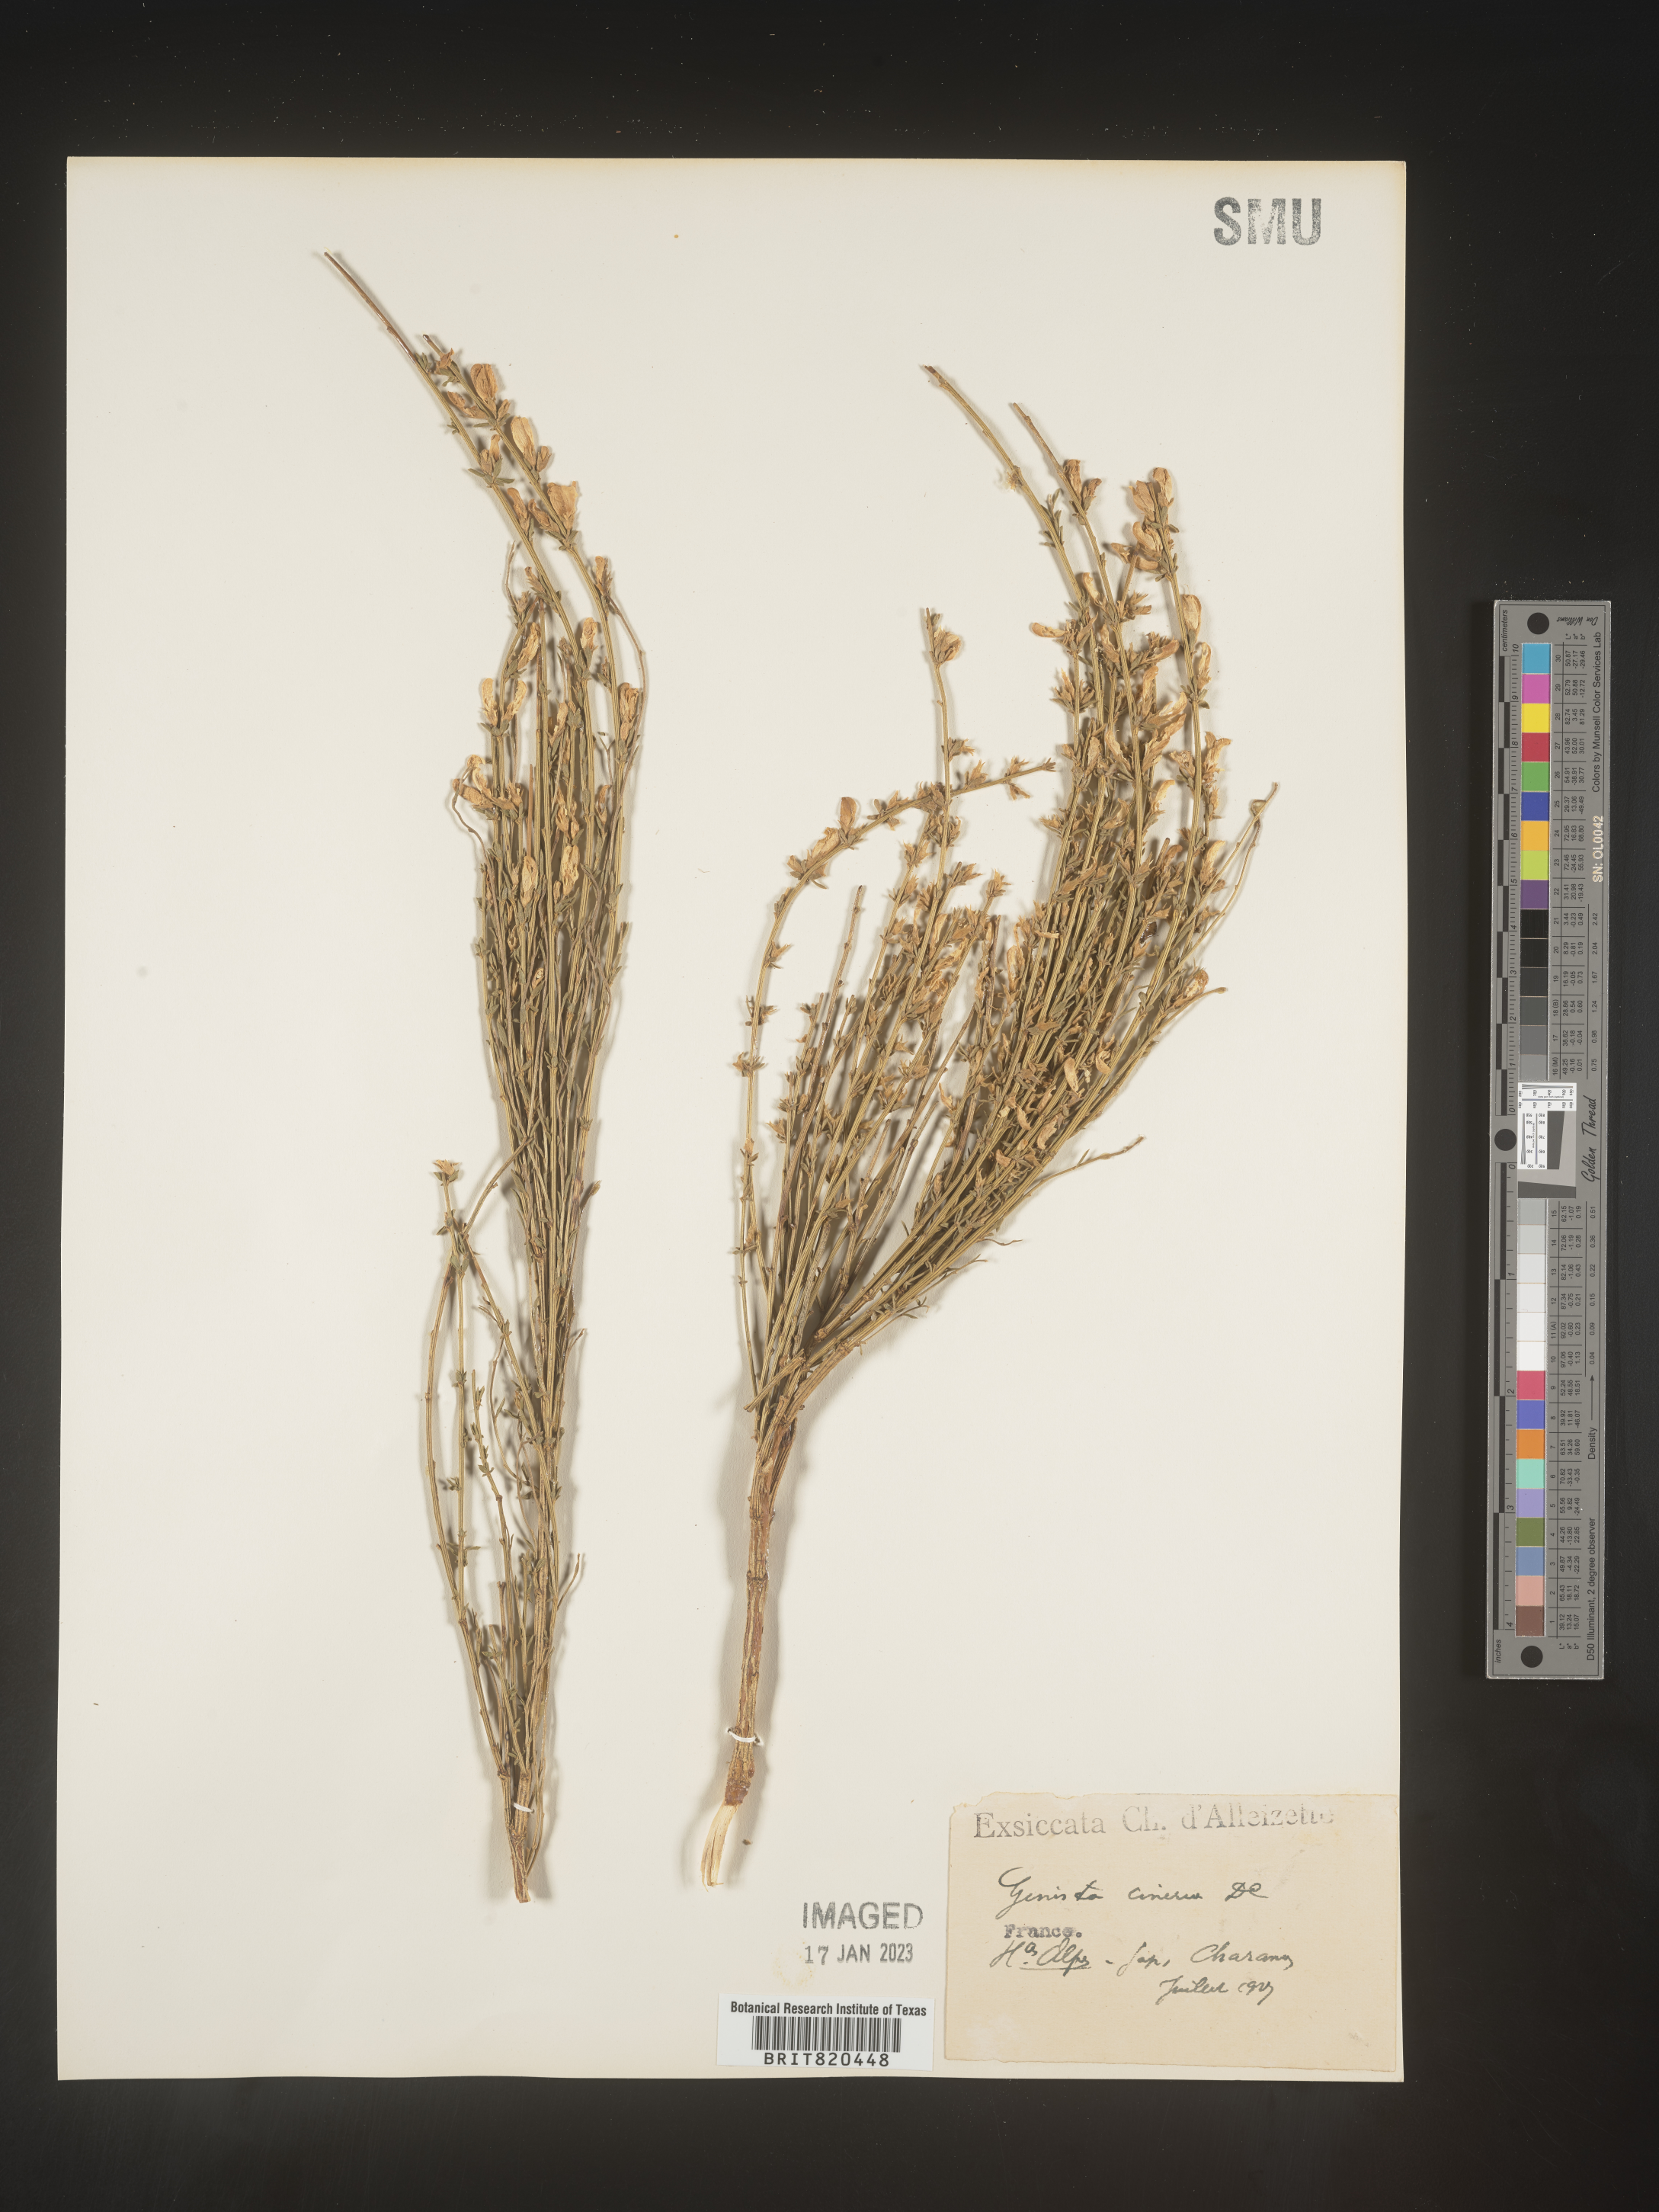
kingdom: Plantae
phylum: Tracheophyta
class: Magnoliopsida
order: Fabales
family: Fabaceae
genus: Genista
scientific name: Genista
